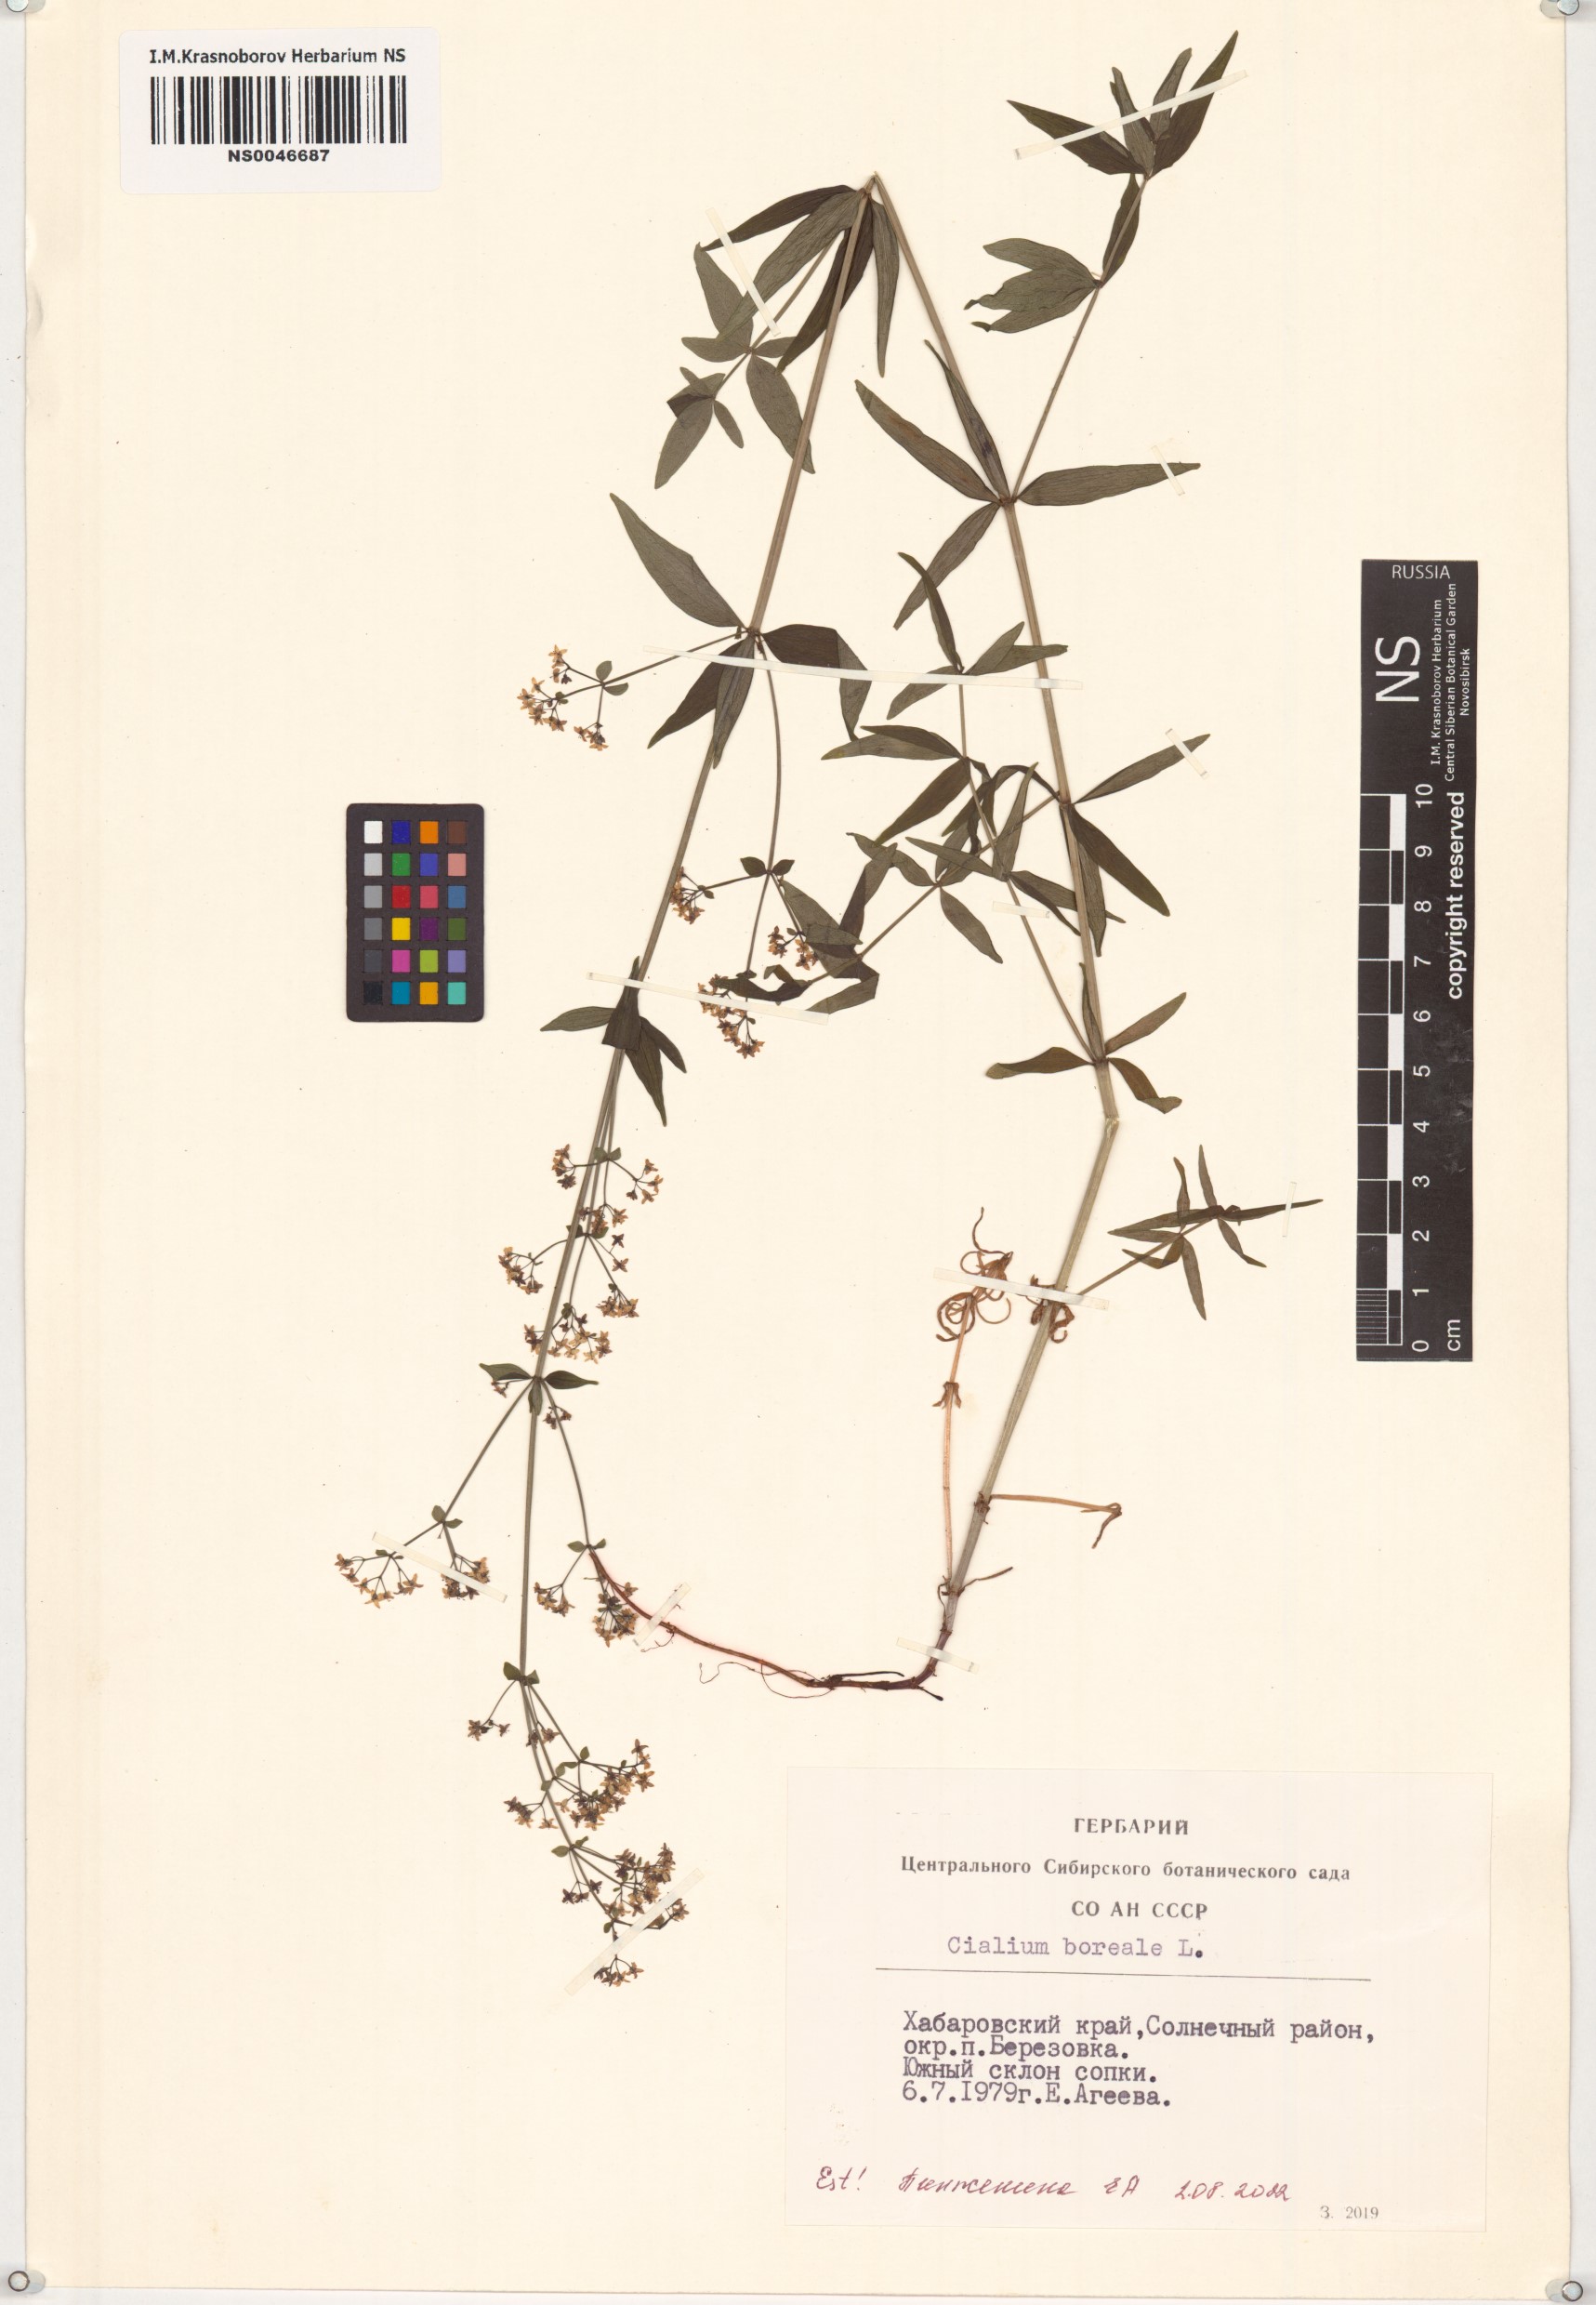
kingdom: Plantae
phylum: Tracheophyta
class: Magnoliopsida
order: Gentianales
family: Rubiaceae
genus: Galium
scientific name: Galium boreale
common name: Northern bedstraw
